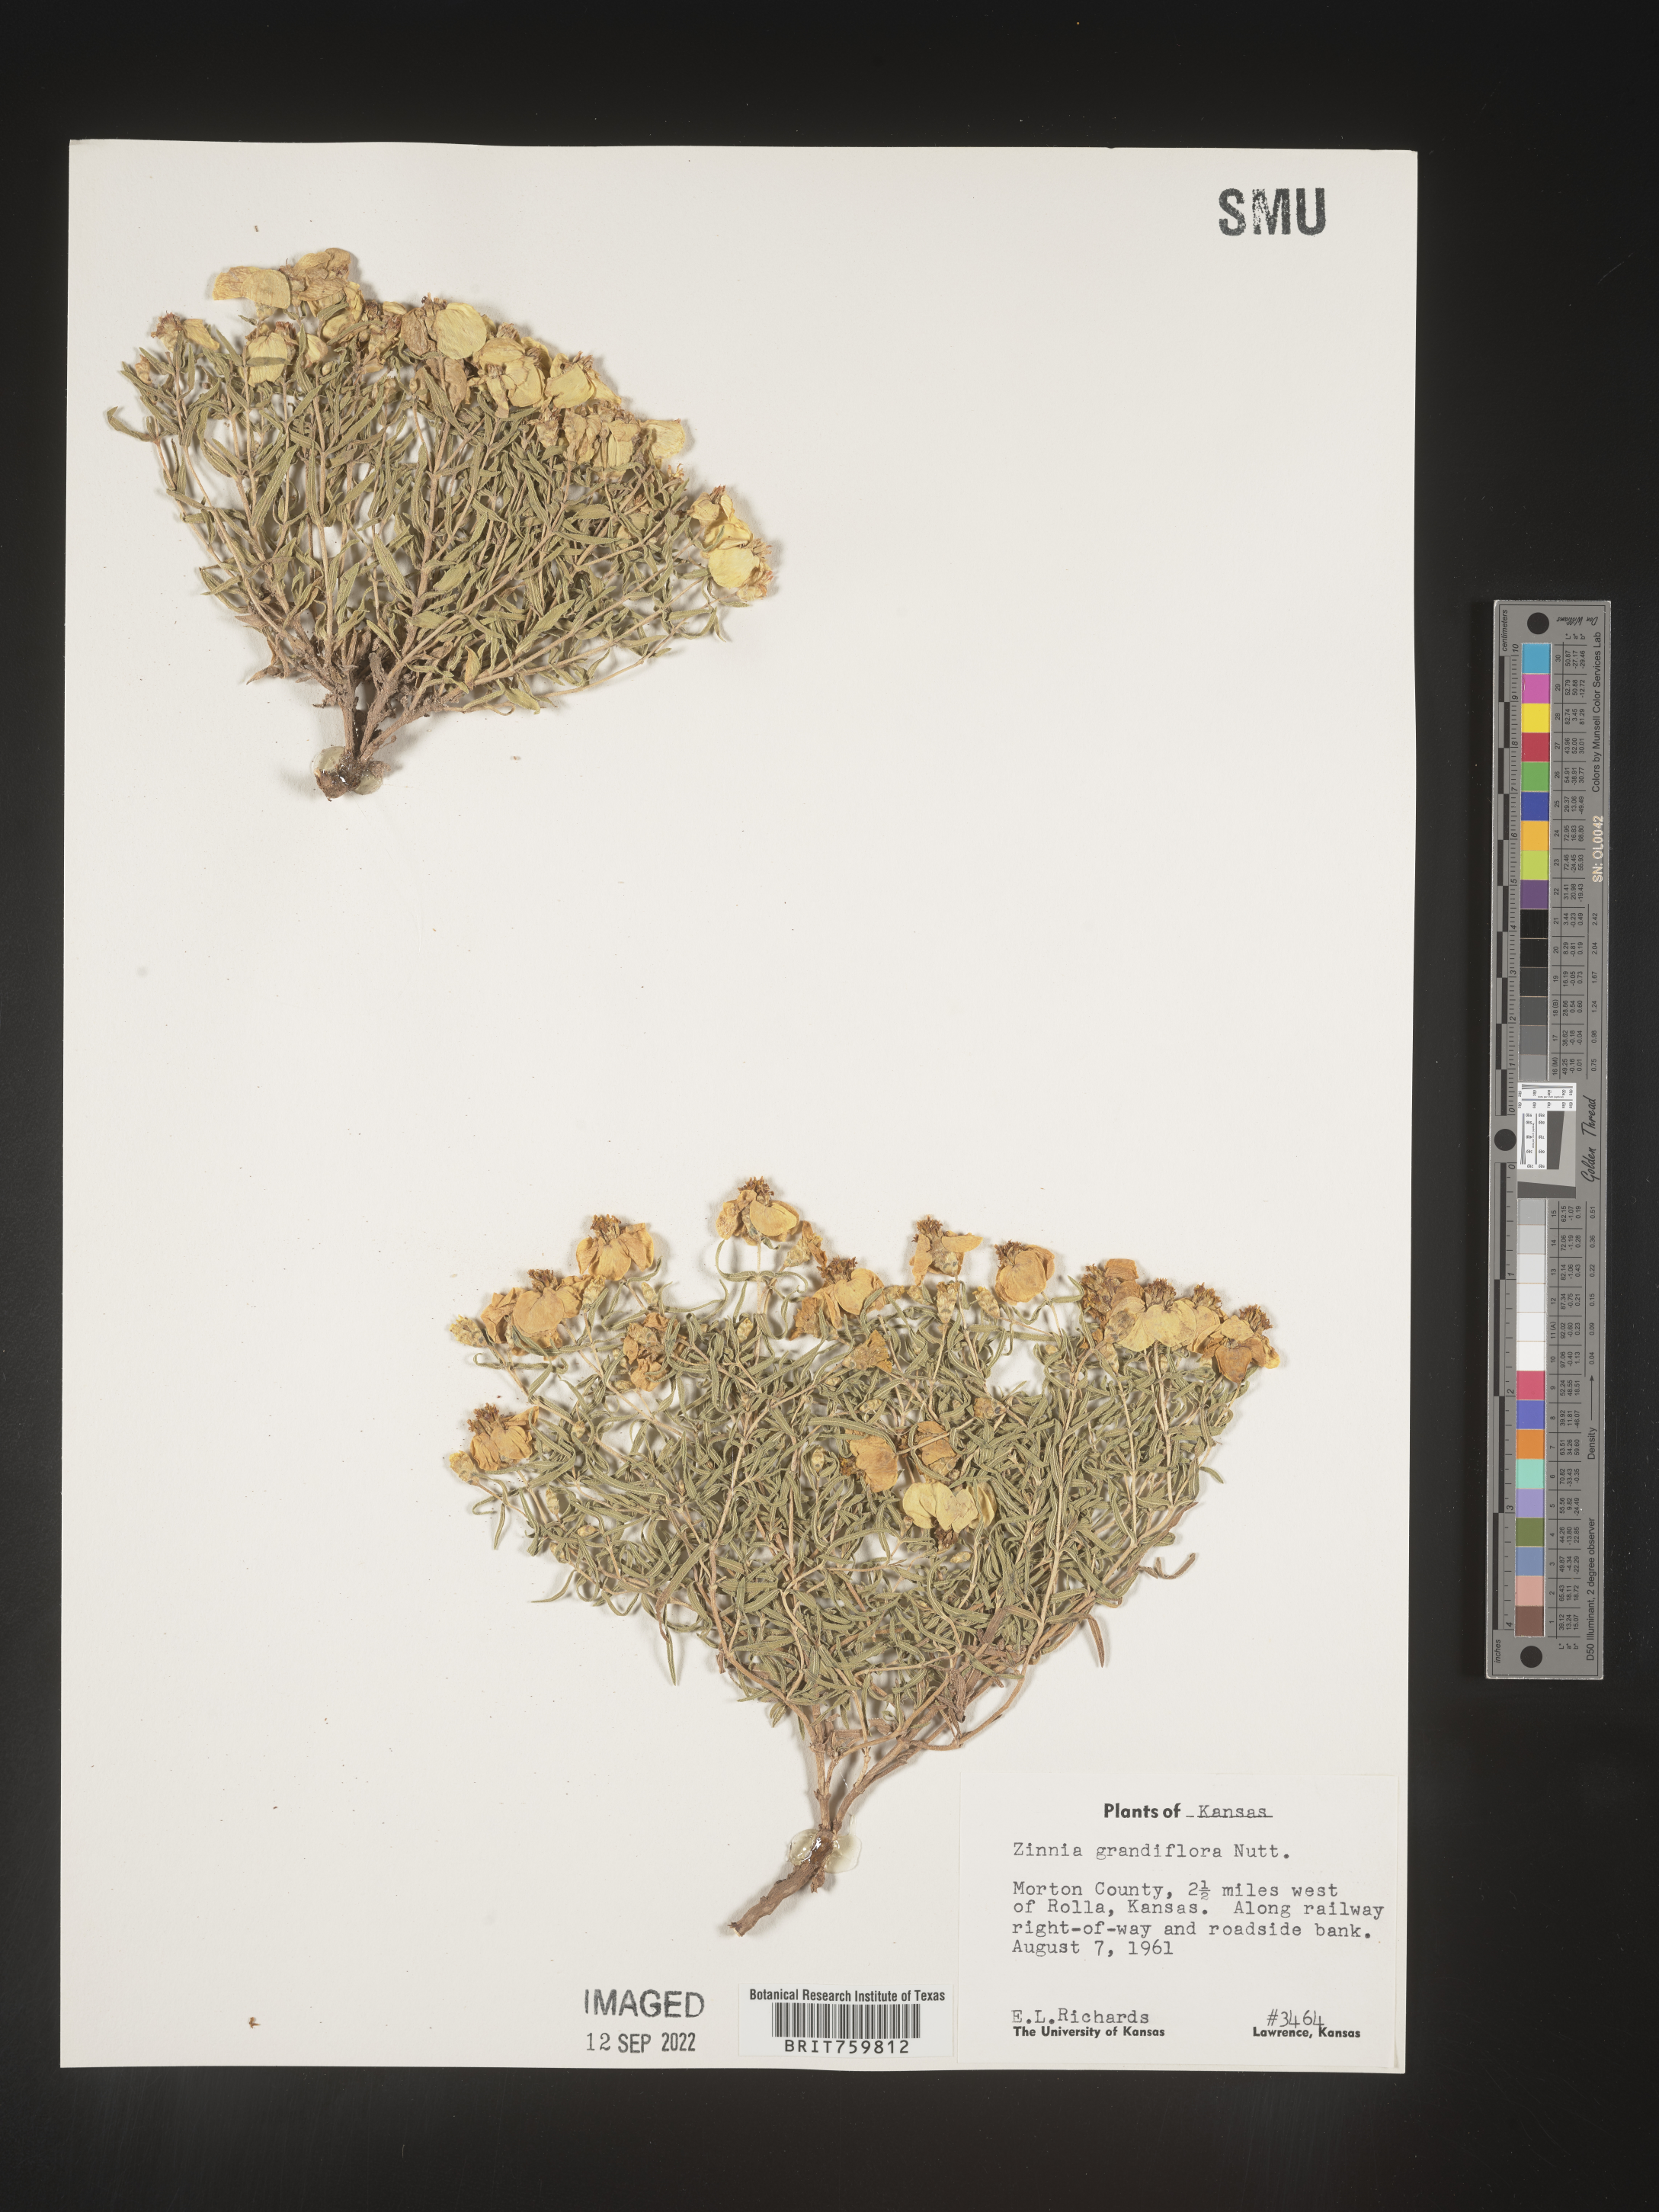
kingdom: Plantae
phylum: Tracheophyta
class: Magnoliopsida
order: Asterales
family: Asteraceae
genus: Zinnia
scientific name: Zinnia grandiflora
